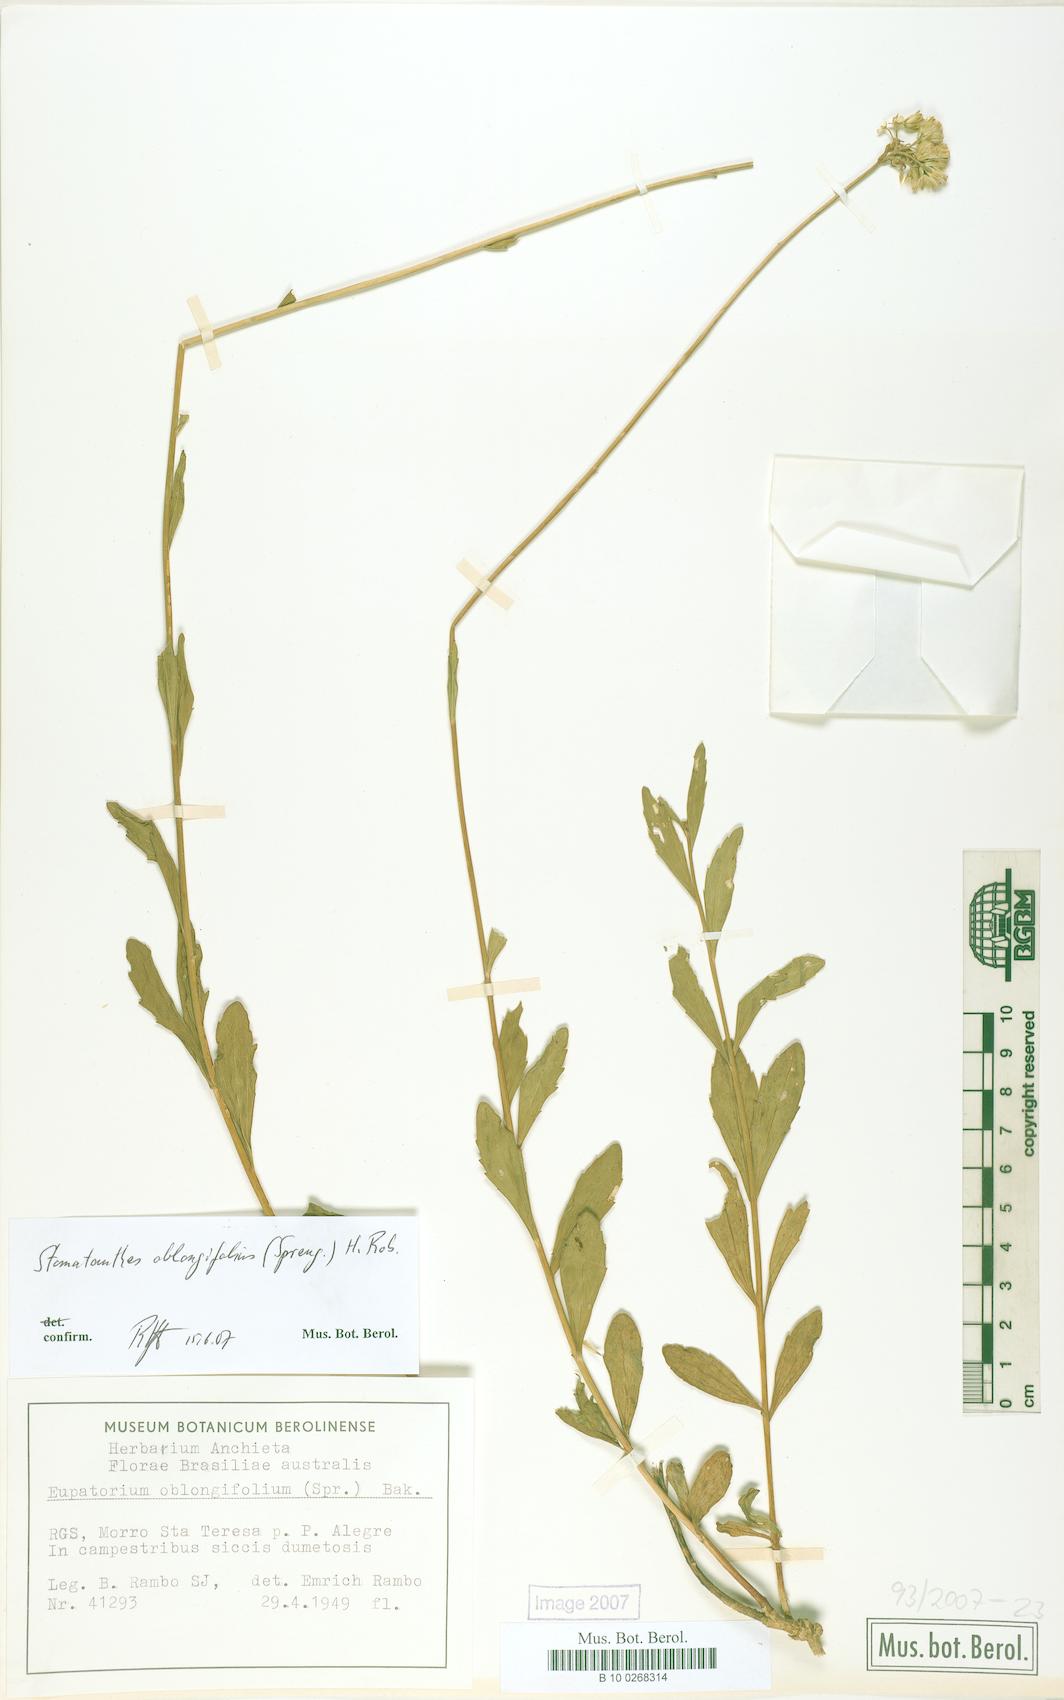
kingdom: Plantae
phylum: Tracheophyta
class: Magnoliopsida
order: Asterales
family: Asteraceae
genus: Stomatanthes
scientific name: Stomatanthes oblongifolius
